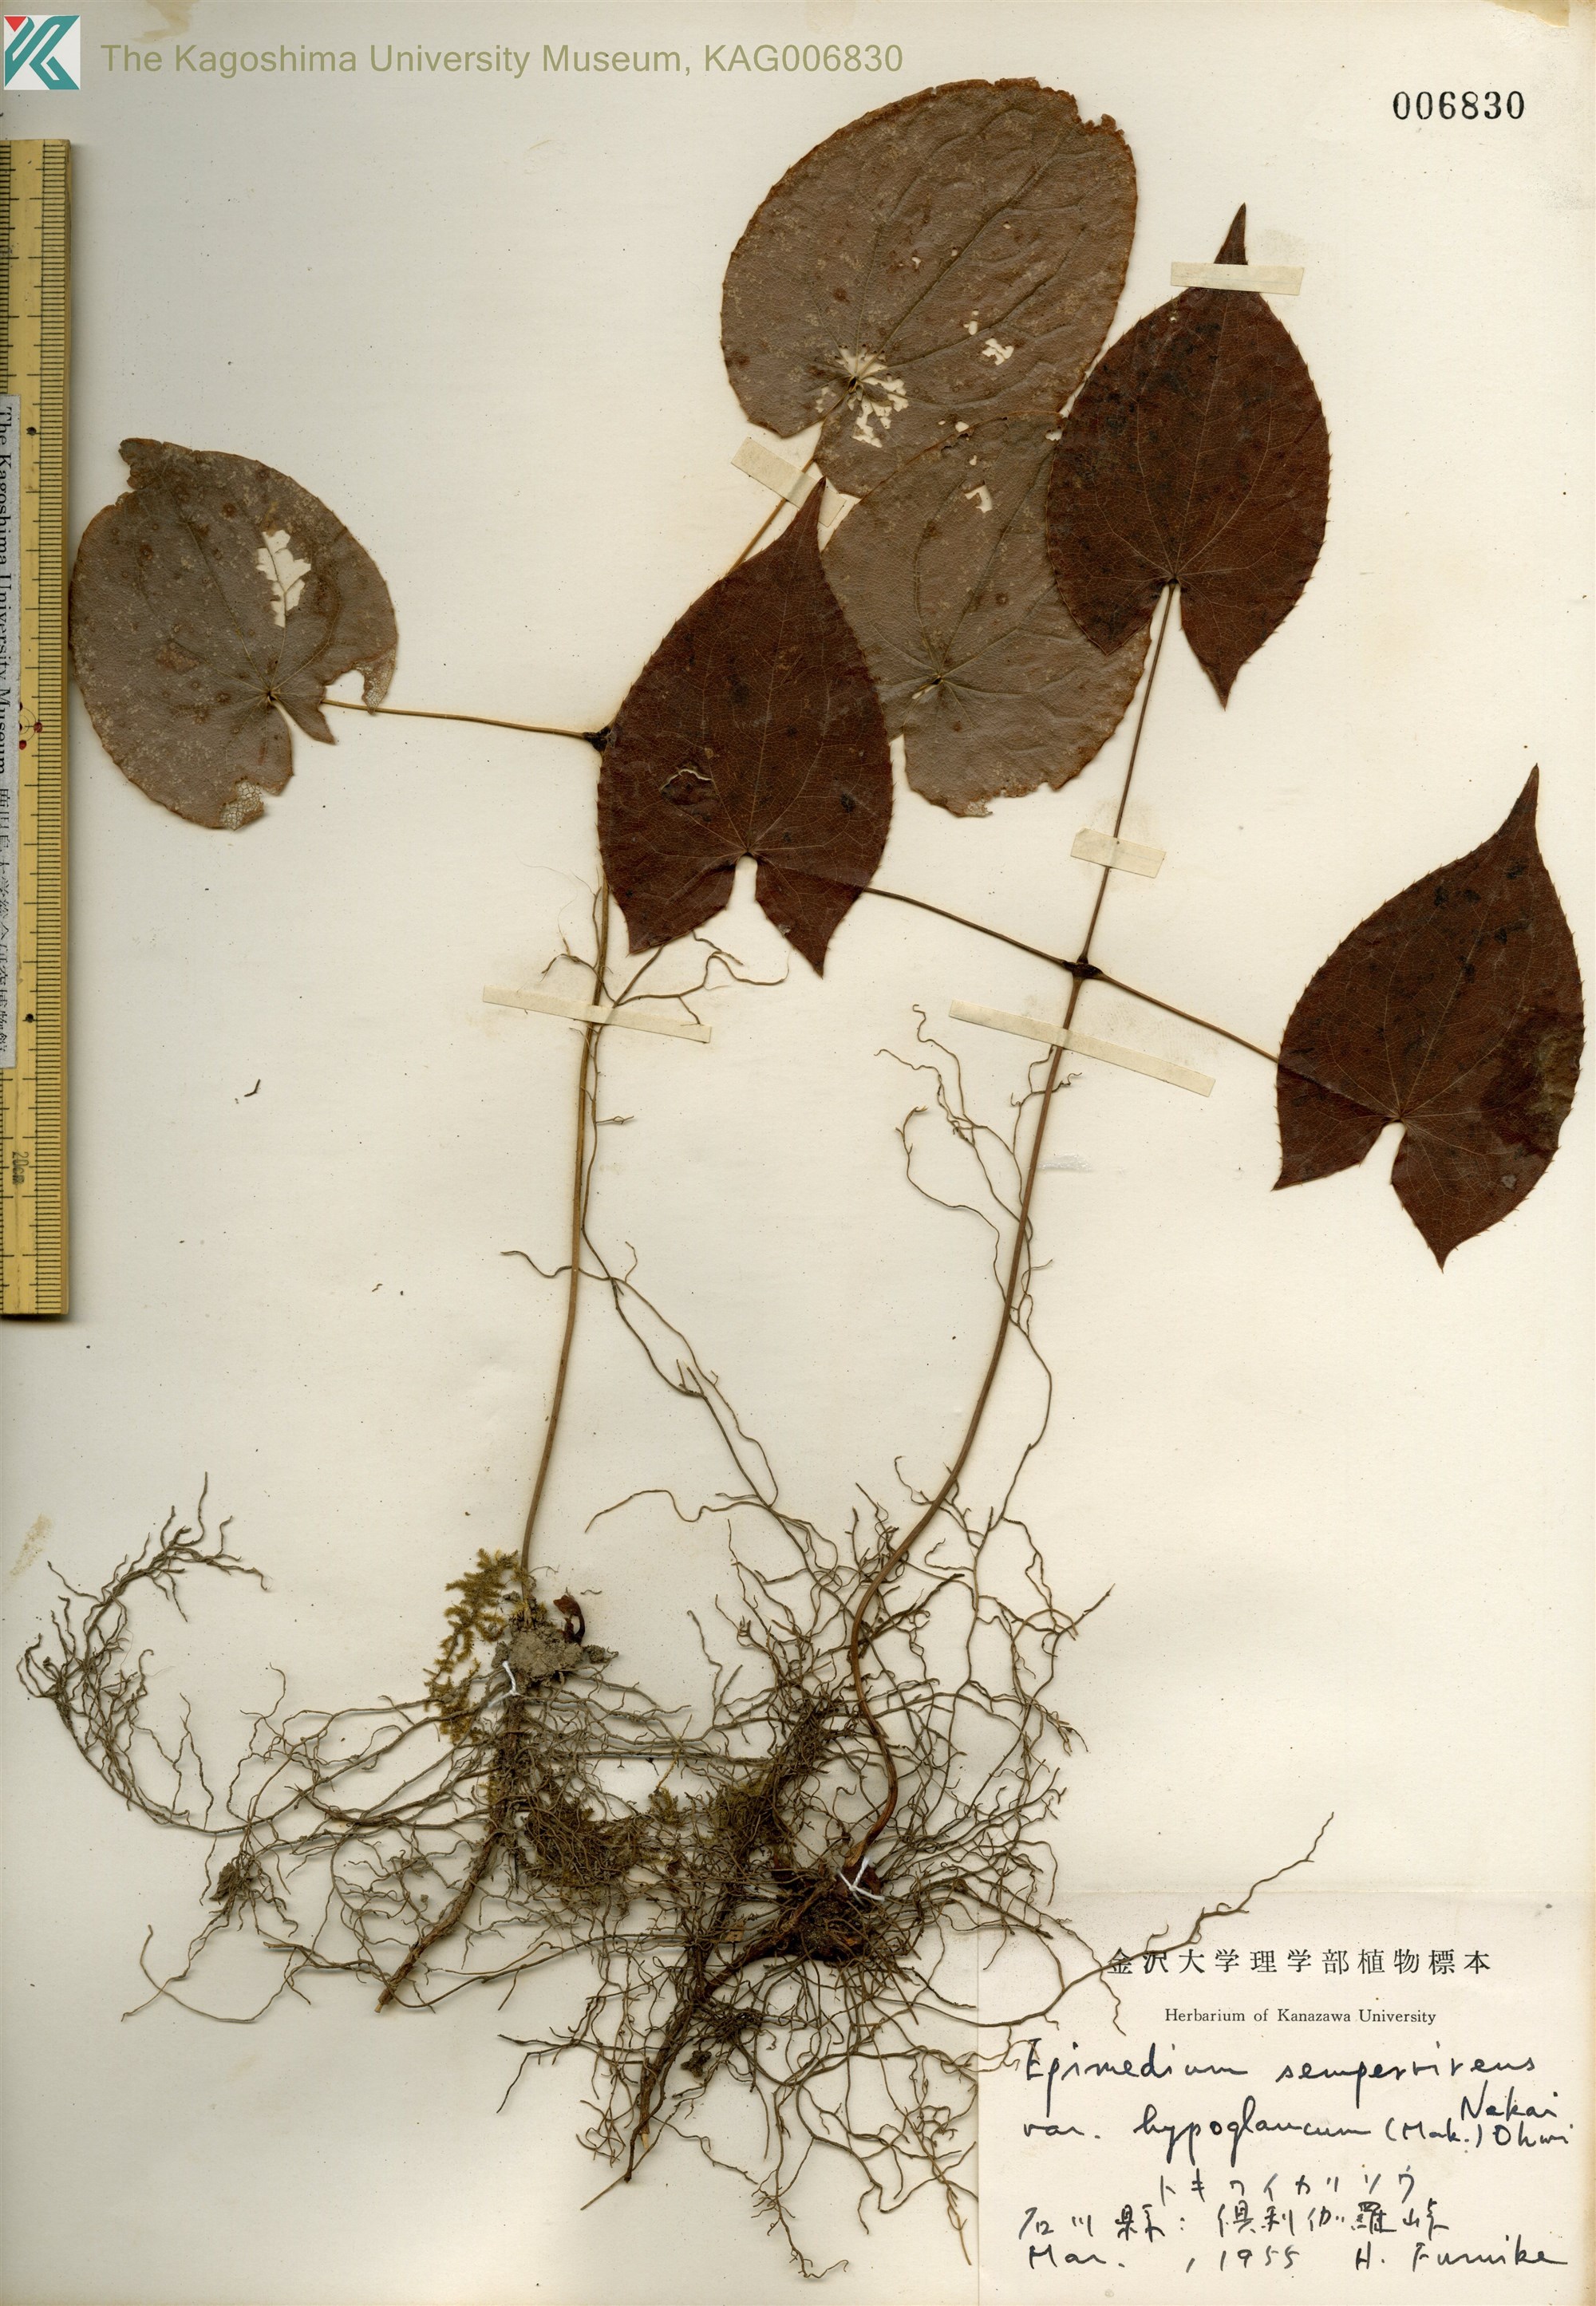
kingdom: Plantae
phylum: Tracheophyta
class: Magnoliopsida
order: Ranunculales
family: Berberidaceae
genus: Epimedium
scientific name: Epimedium sempervirens
